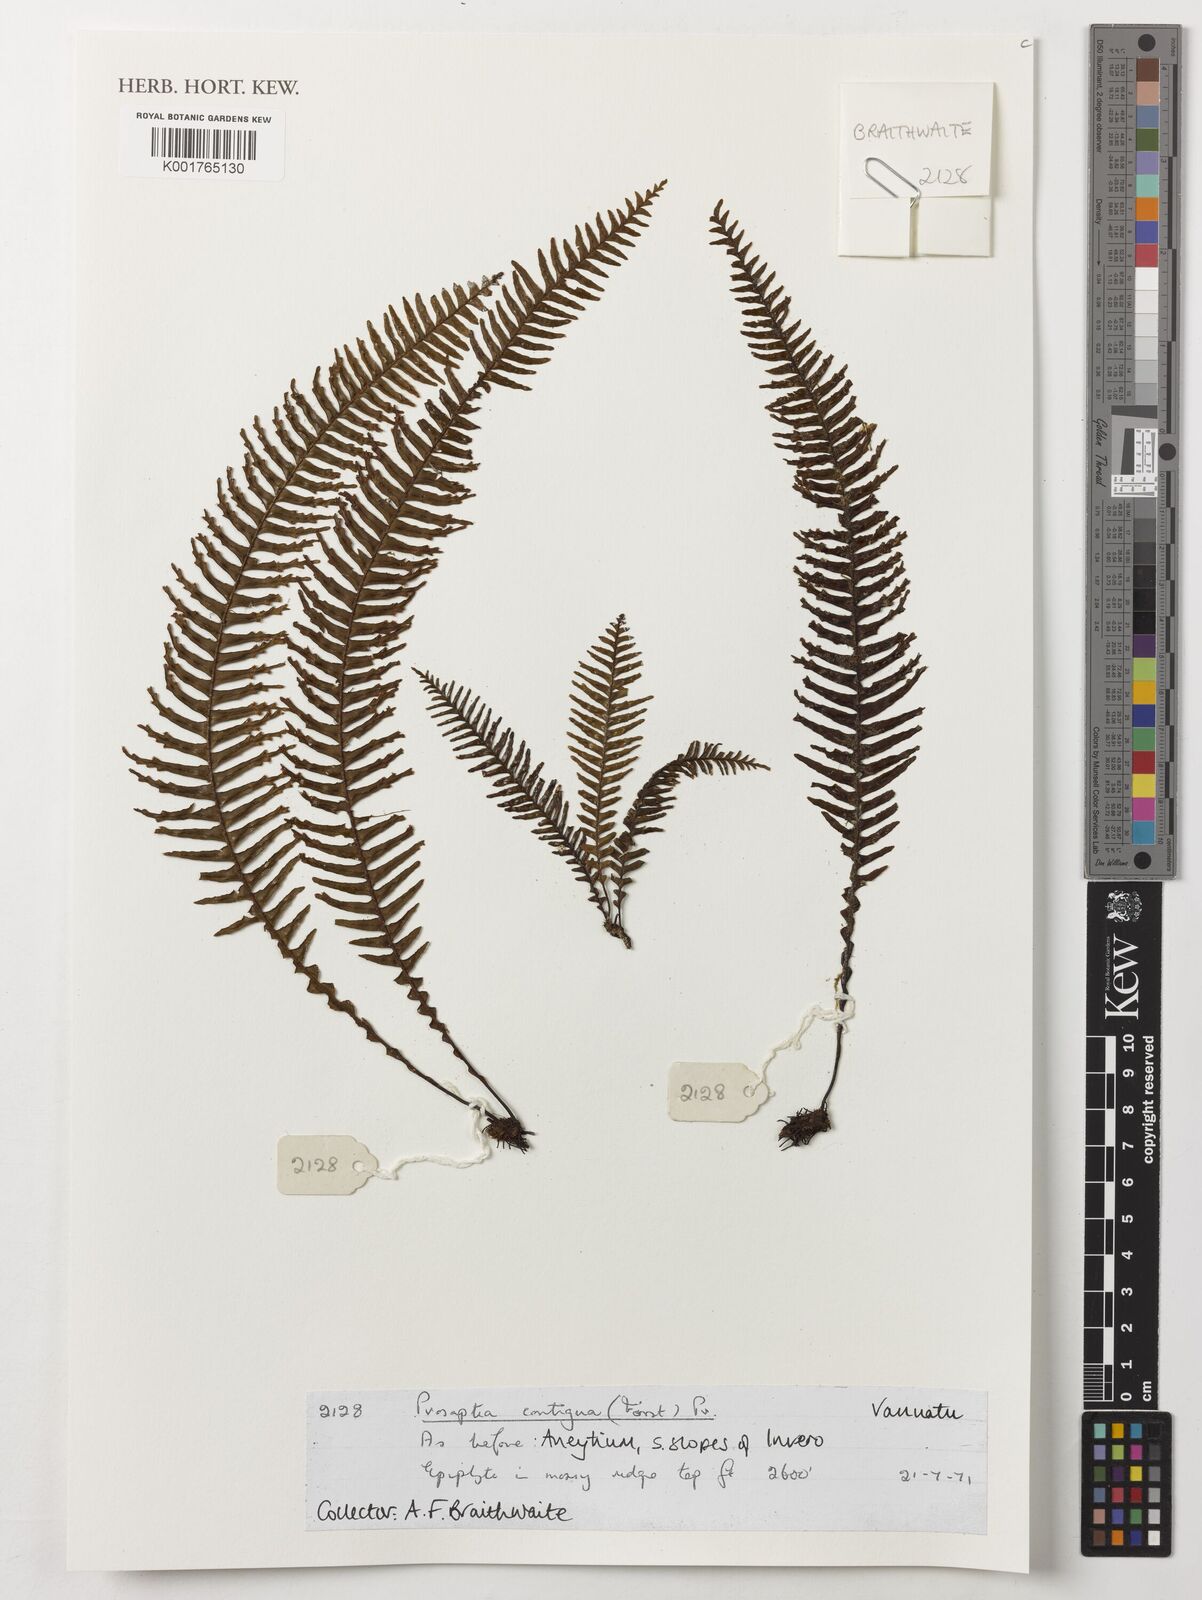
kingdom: Plantae
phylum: Tracheophyta
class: Polypodiopsida
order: Polypodiales
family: Polypodiaceae
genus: Prosaptia
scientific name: Prosaptia contigua
